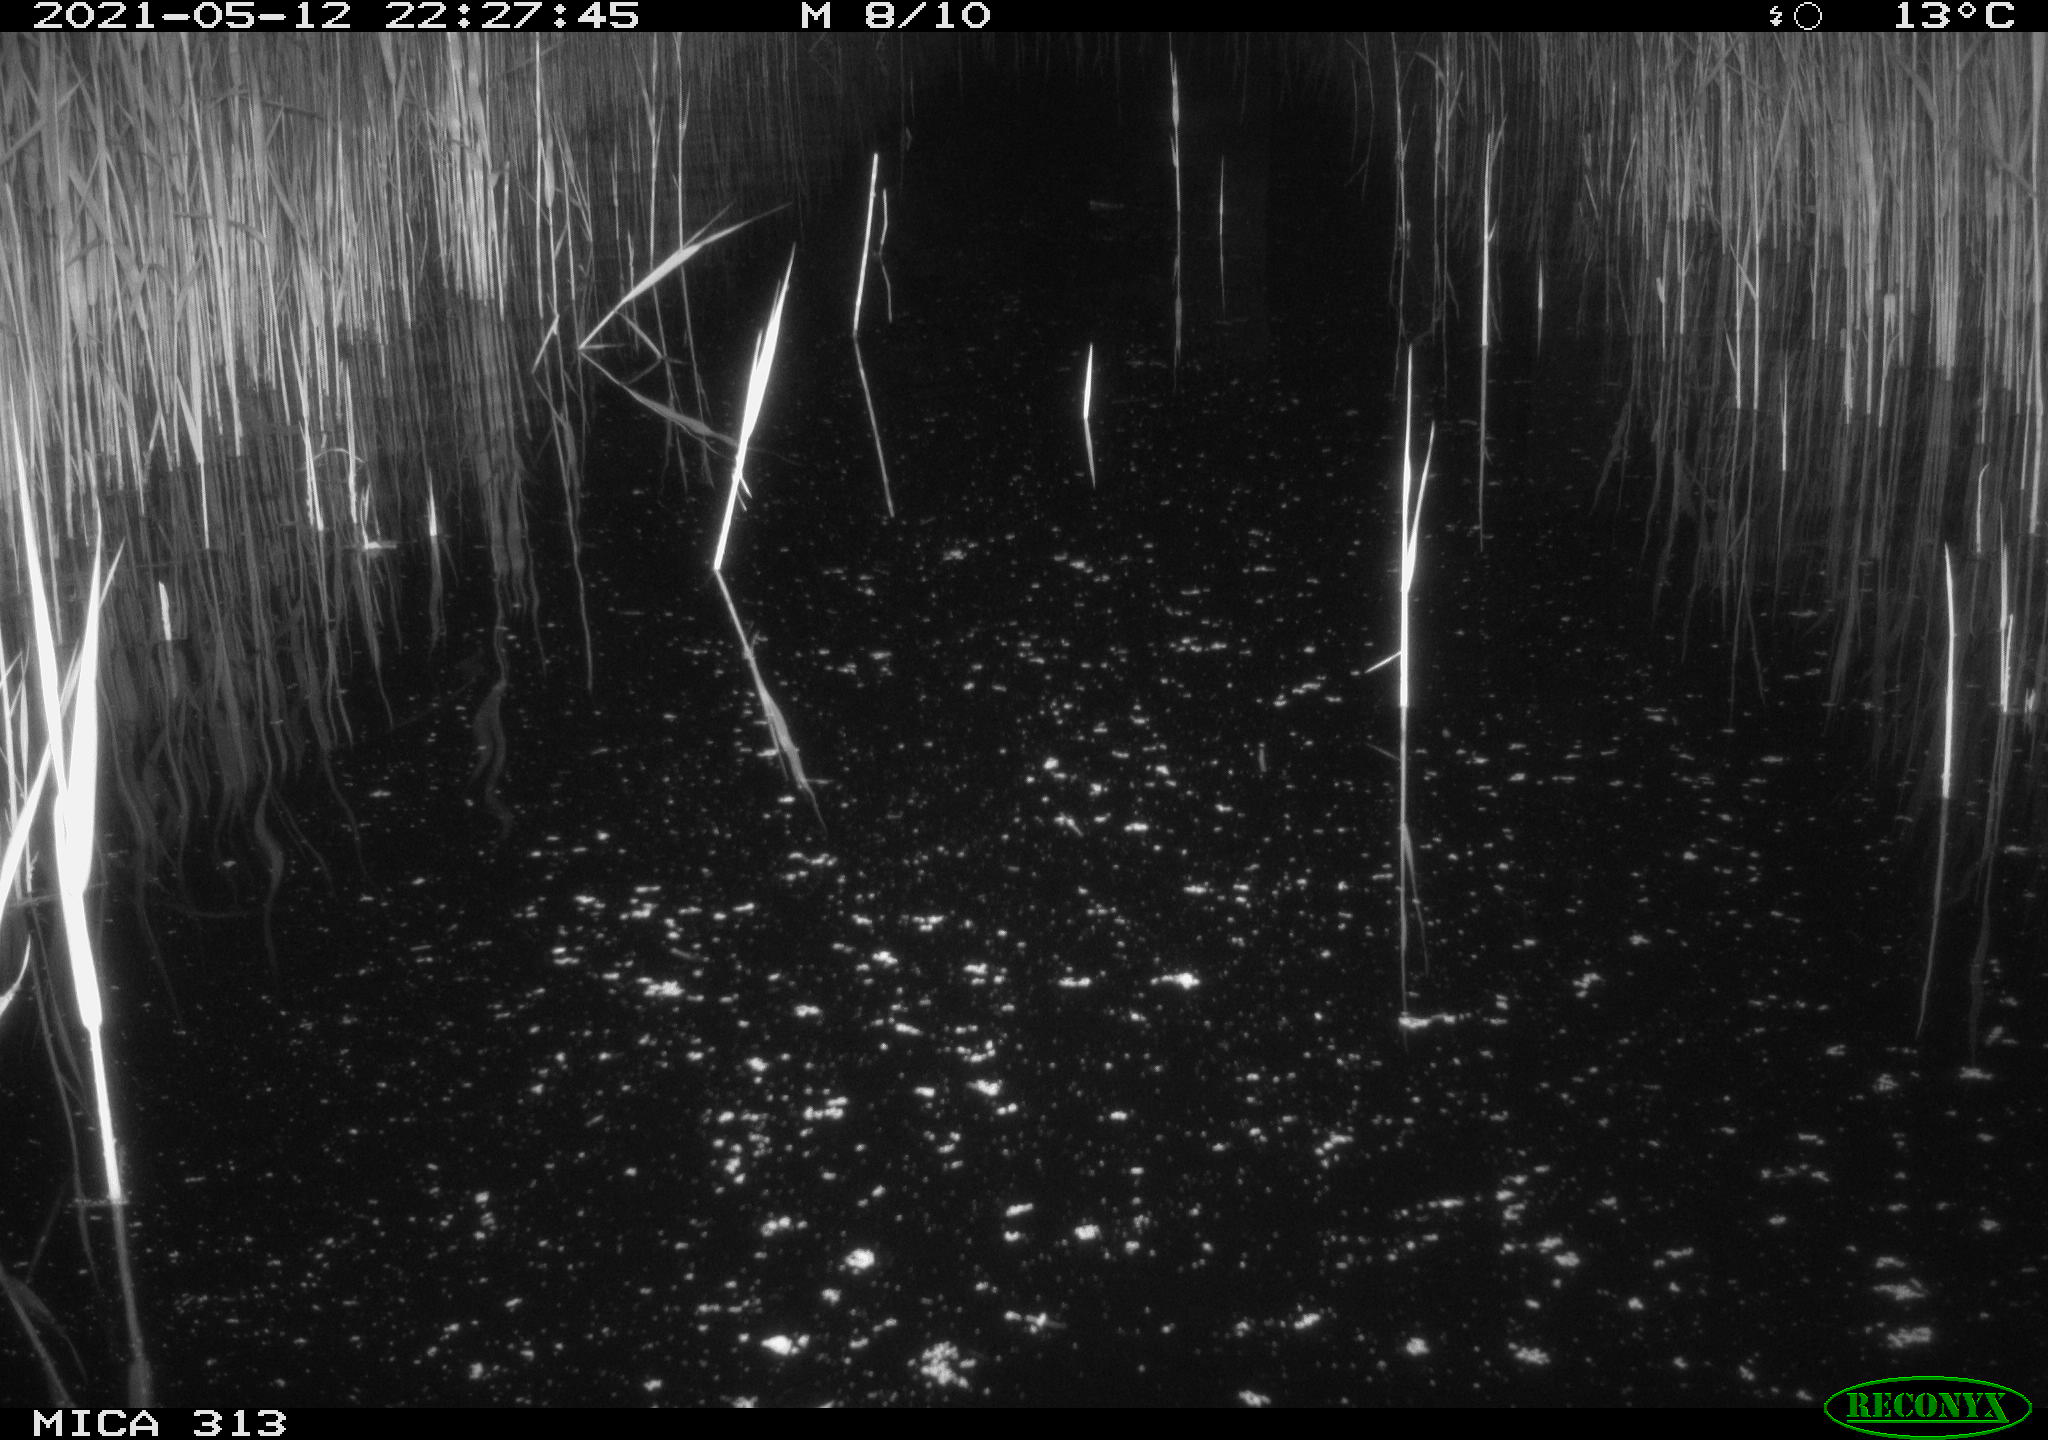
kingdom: Animalia
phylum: Chordata
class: Aves
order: Gruiformes
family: Rallidae
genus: Gallinula
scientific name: Gallinula chloropus
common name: Common moorhen
